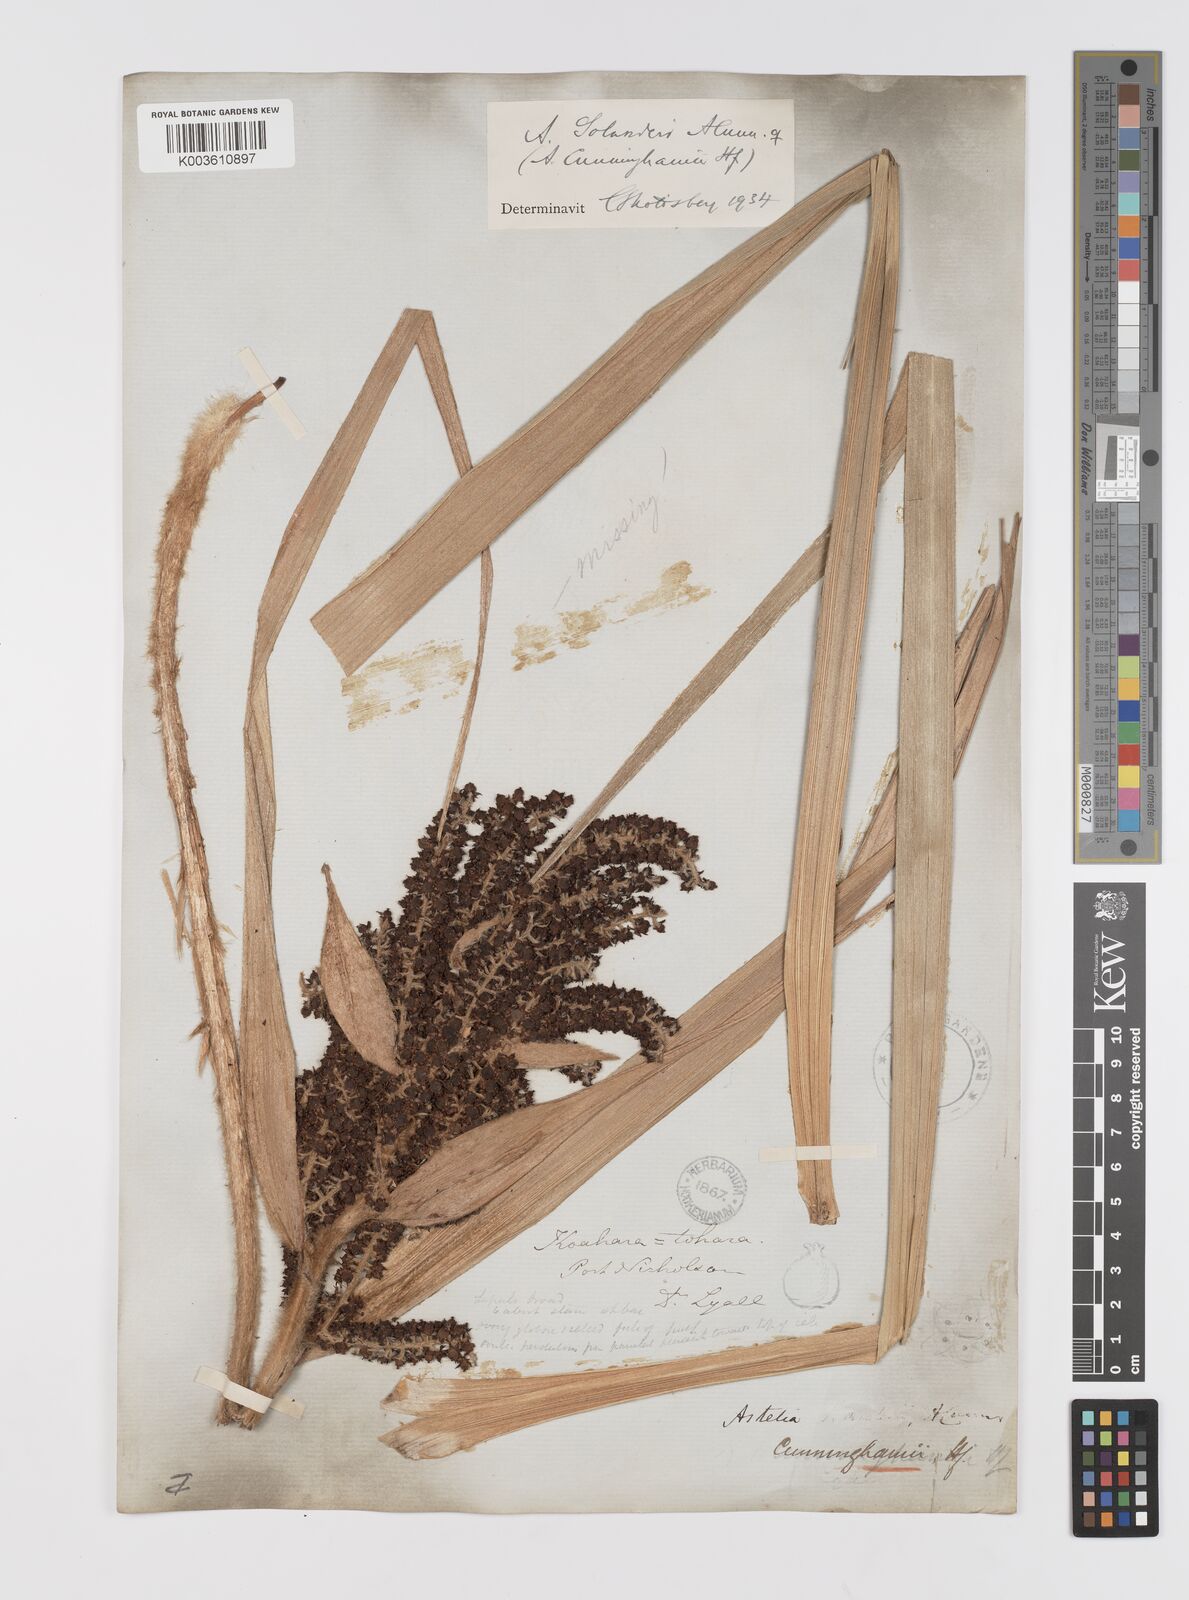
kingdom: Plantae
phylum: Tracheophyta
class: Liliopsida
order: Asparagales
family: Asteliaceae
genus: Astelia
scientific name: Astelia solandri
